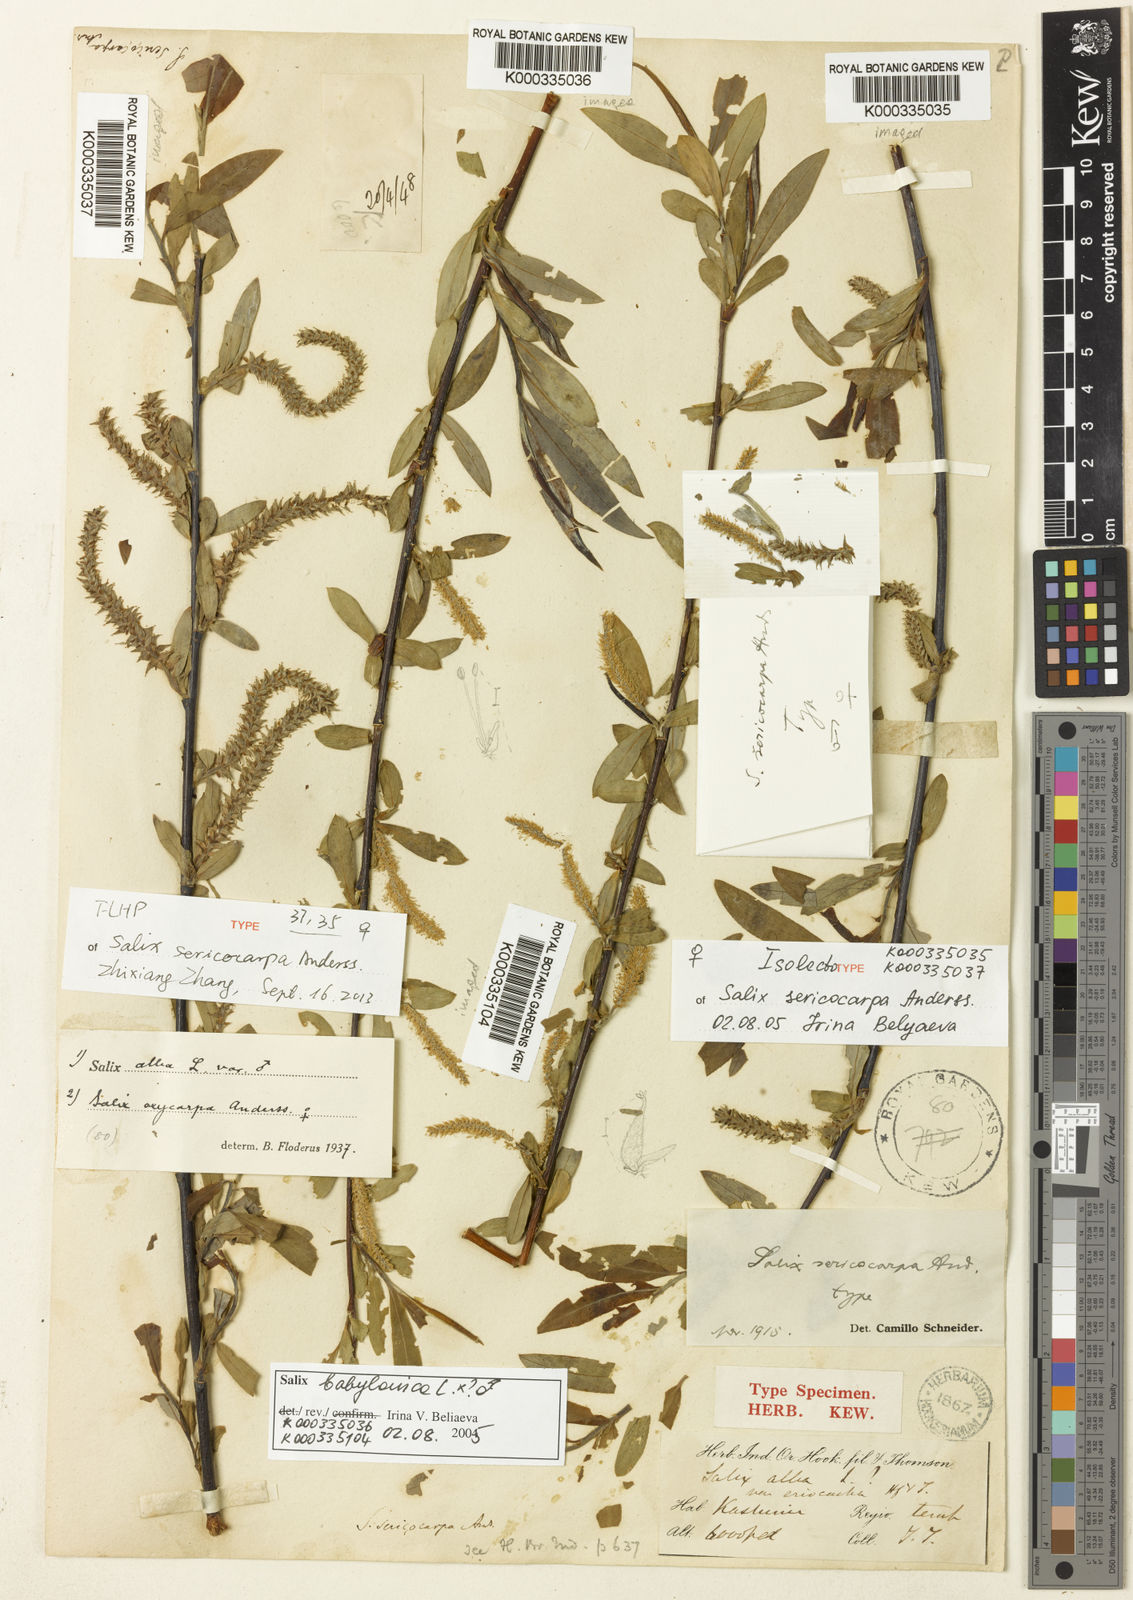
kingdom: Plantae
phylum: Tracheophyta
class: Magnoliopsida
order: Malpighiales
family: Salicaceae
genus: Salix
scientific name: Salix sericocarpa
